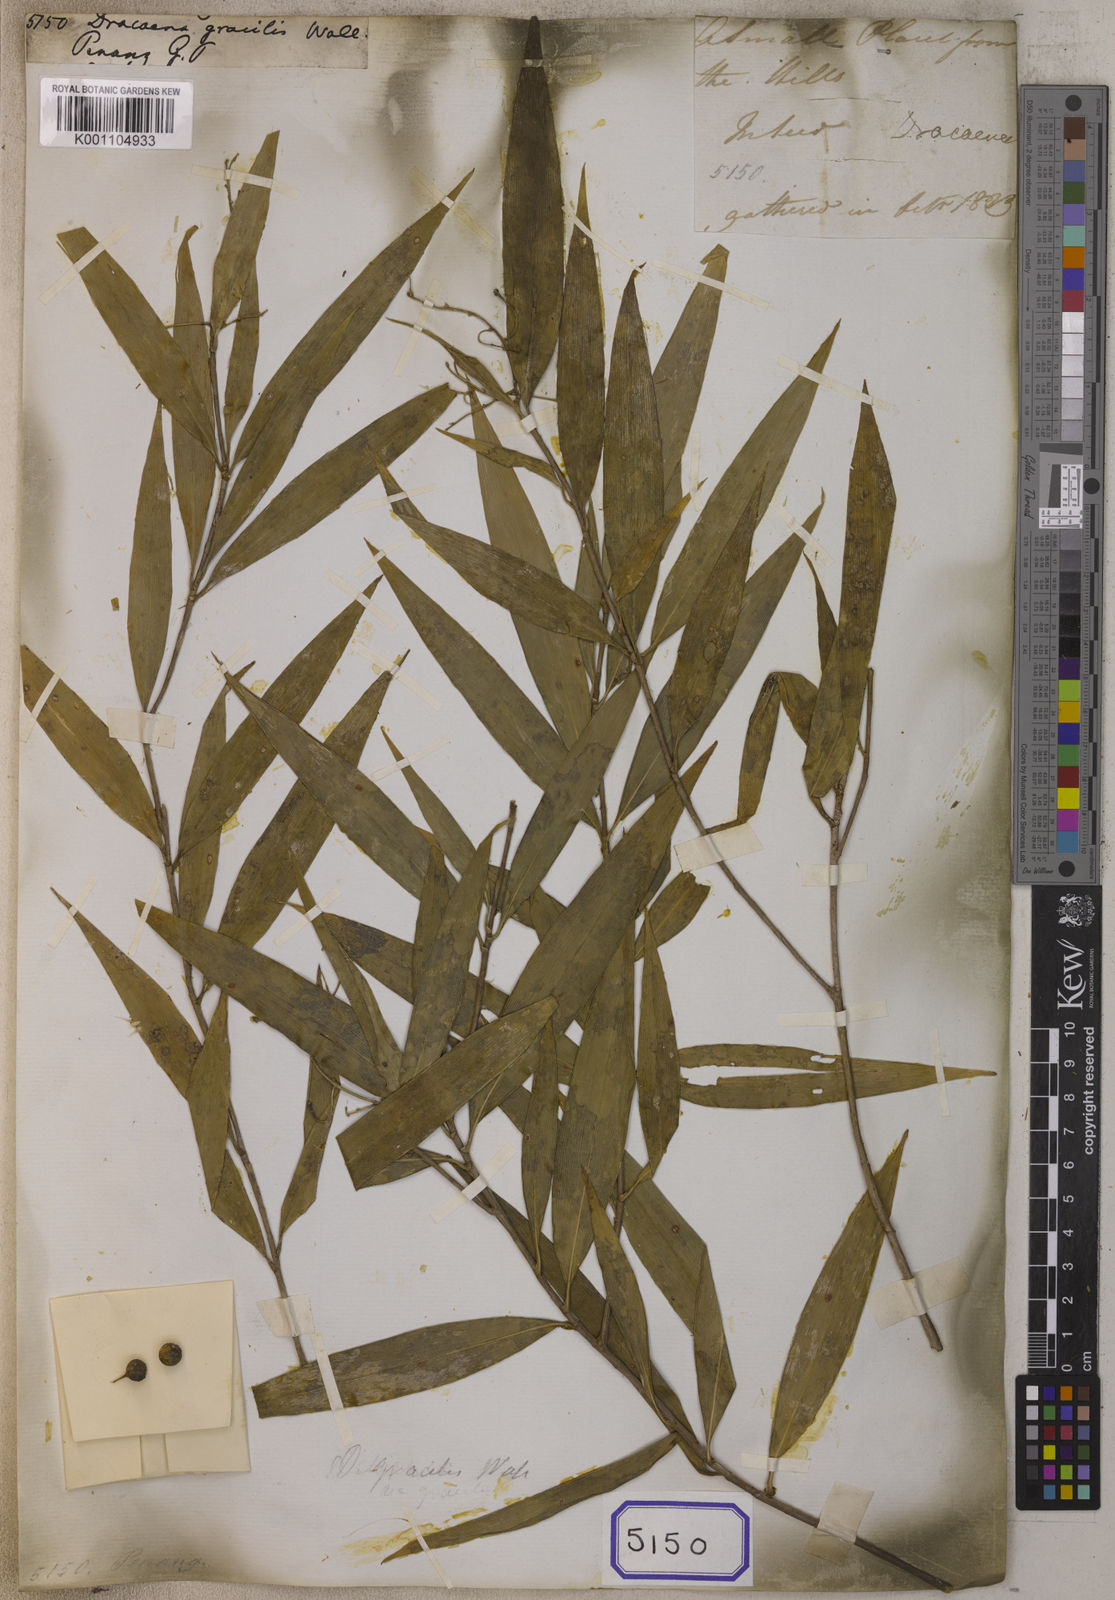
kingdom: Plantae
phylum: Tracheophyta
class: Liliopsida
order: Asparagales
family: Asparagaceae
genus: Dracaena
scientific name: Dracaena
